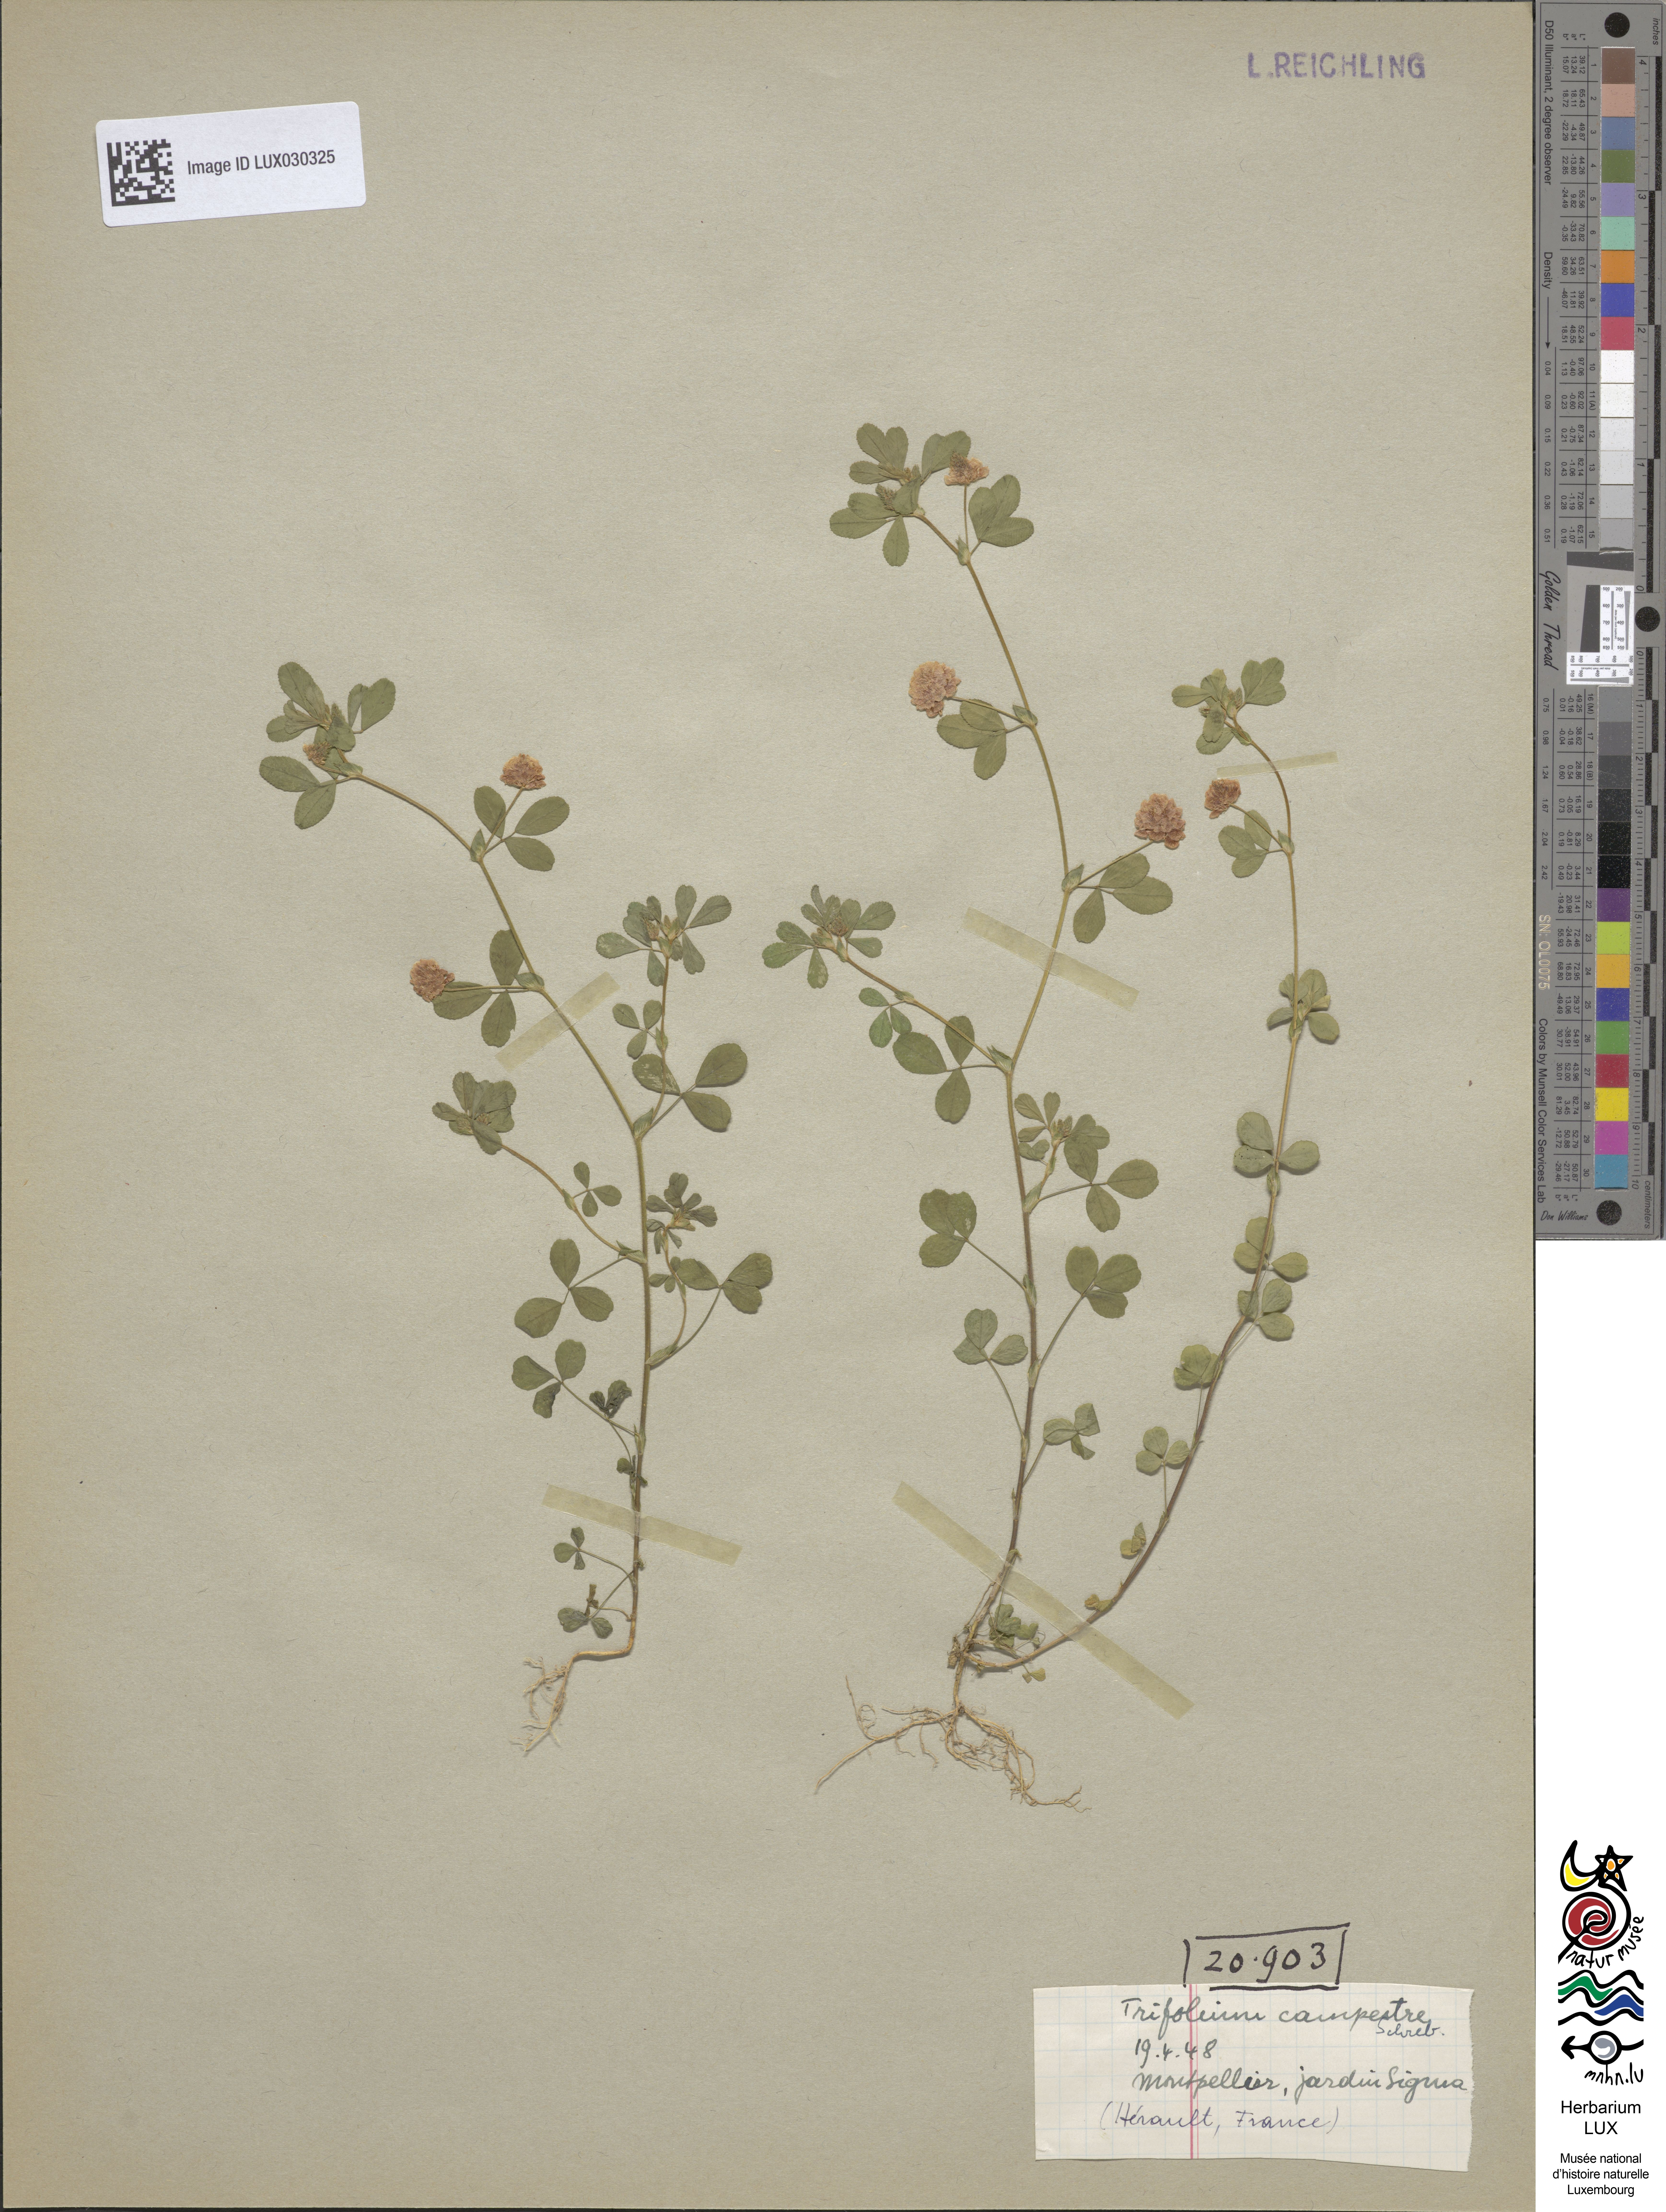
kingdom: Plantae
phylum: Tracheophyta
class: Magnoliopsida
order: Fabales
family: Fabaceae
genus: Trifolium
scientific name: Trifolium campestre
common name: Field clover
